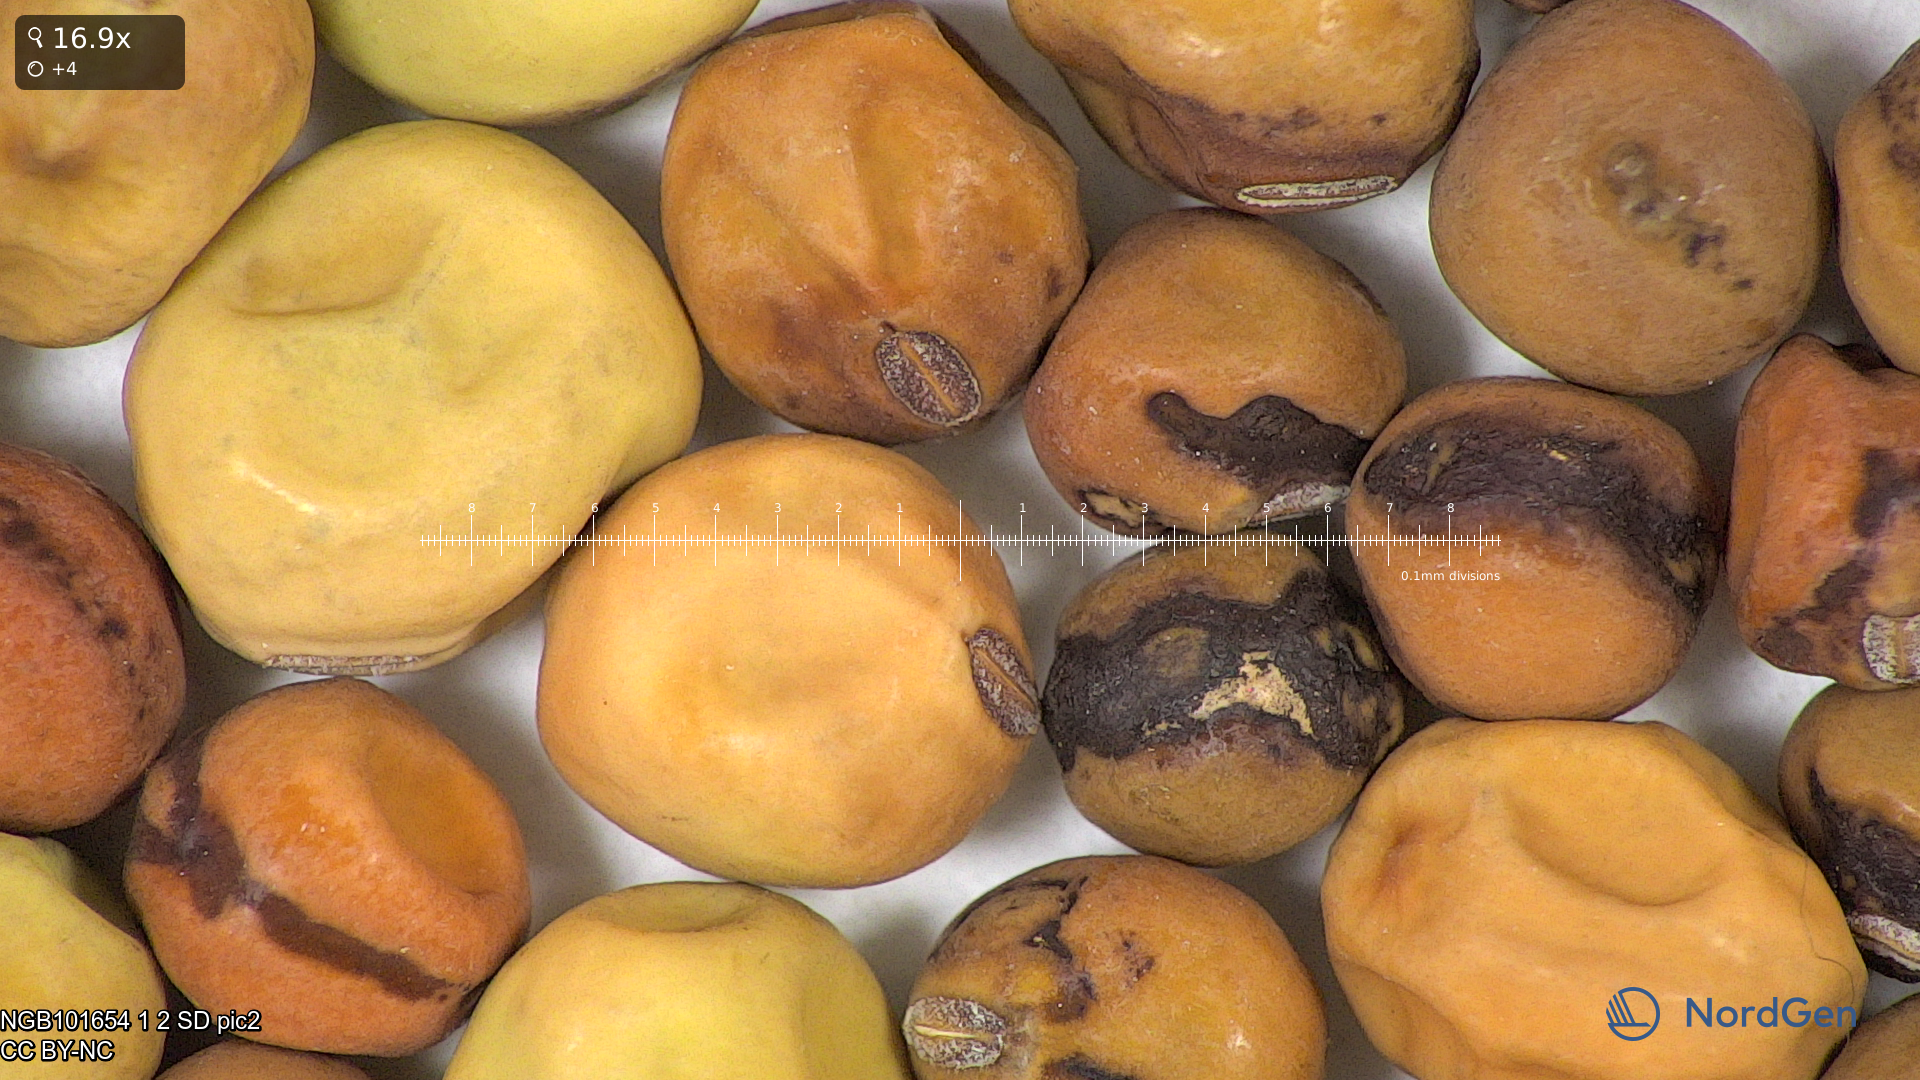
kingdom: Plantae
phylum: Tracheophyta
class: Magnoliopsida
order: Fabales
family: Fabaceae
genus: Lathyrus
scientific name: Lathyrus oleraceus
